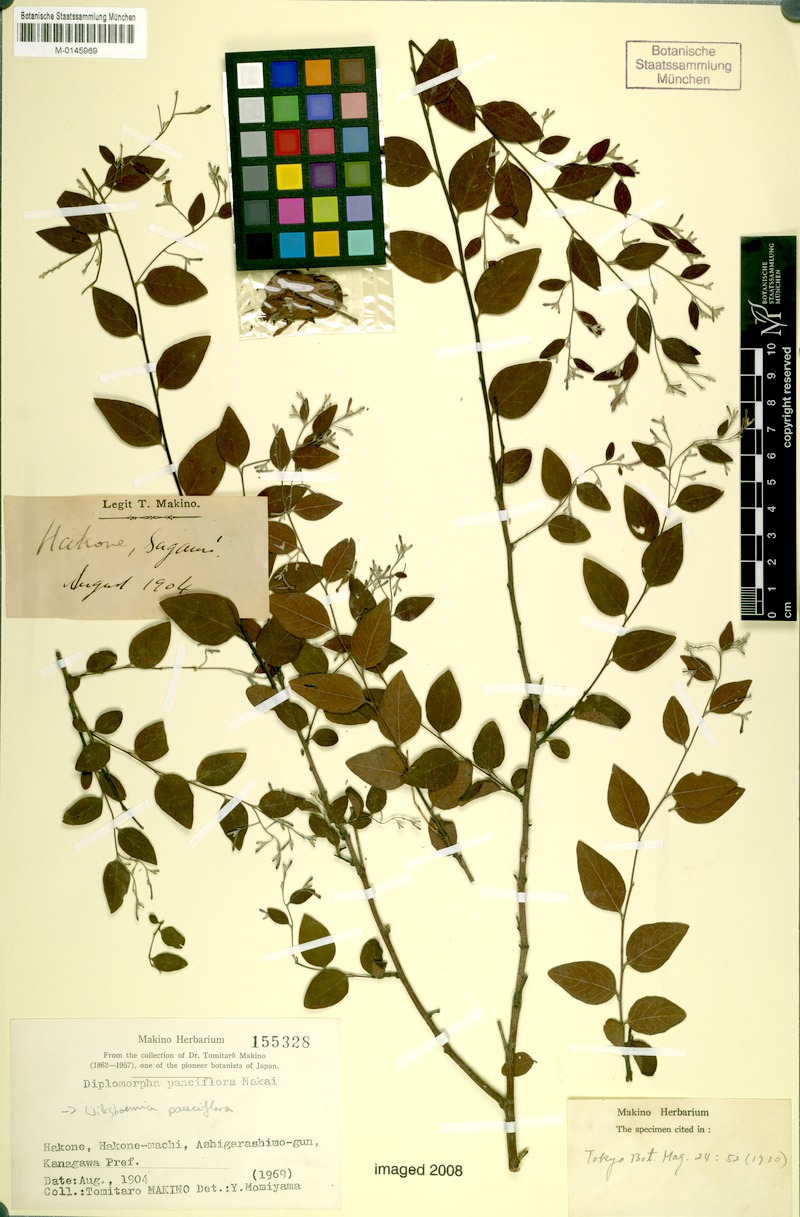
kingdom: Plantae
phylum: Tracheophyta
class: Magnoliopsida
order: Malvales
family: Thymelaeaceae
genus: Wikstroemia
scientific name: Wikstroemia pauciflora
